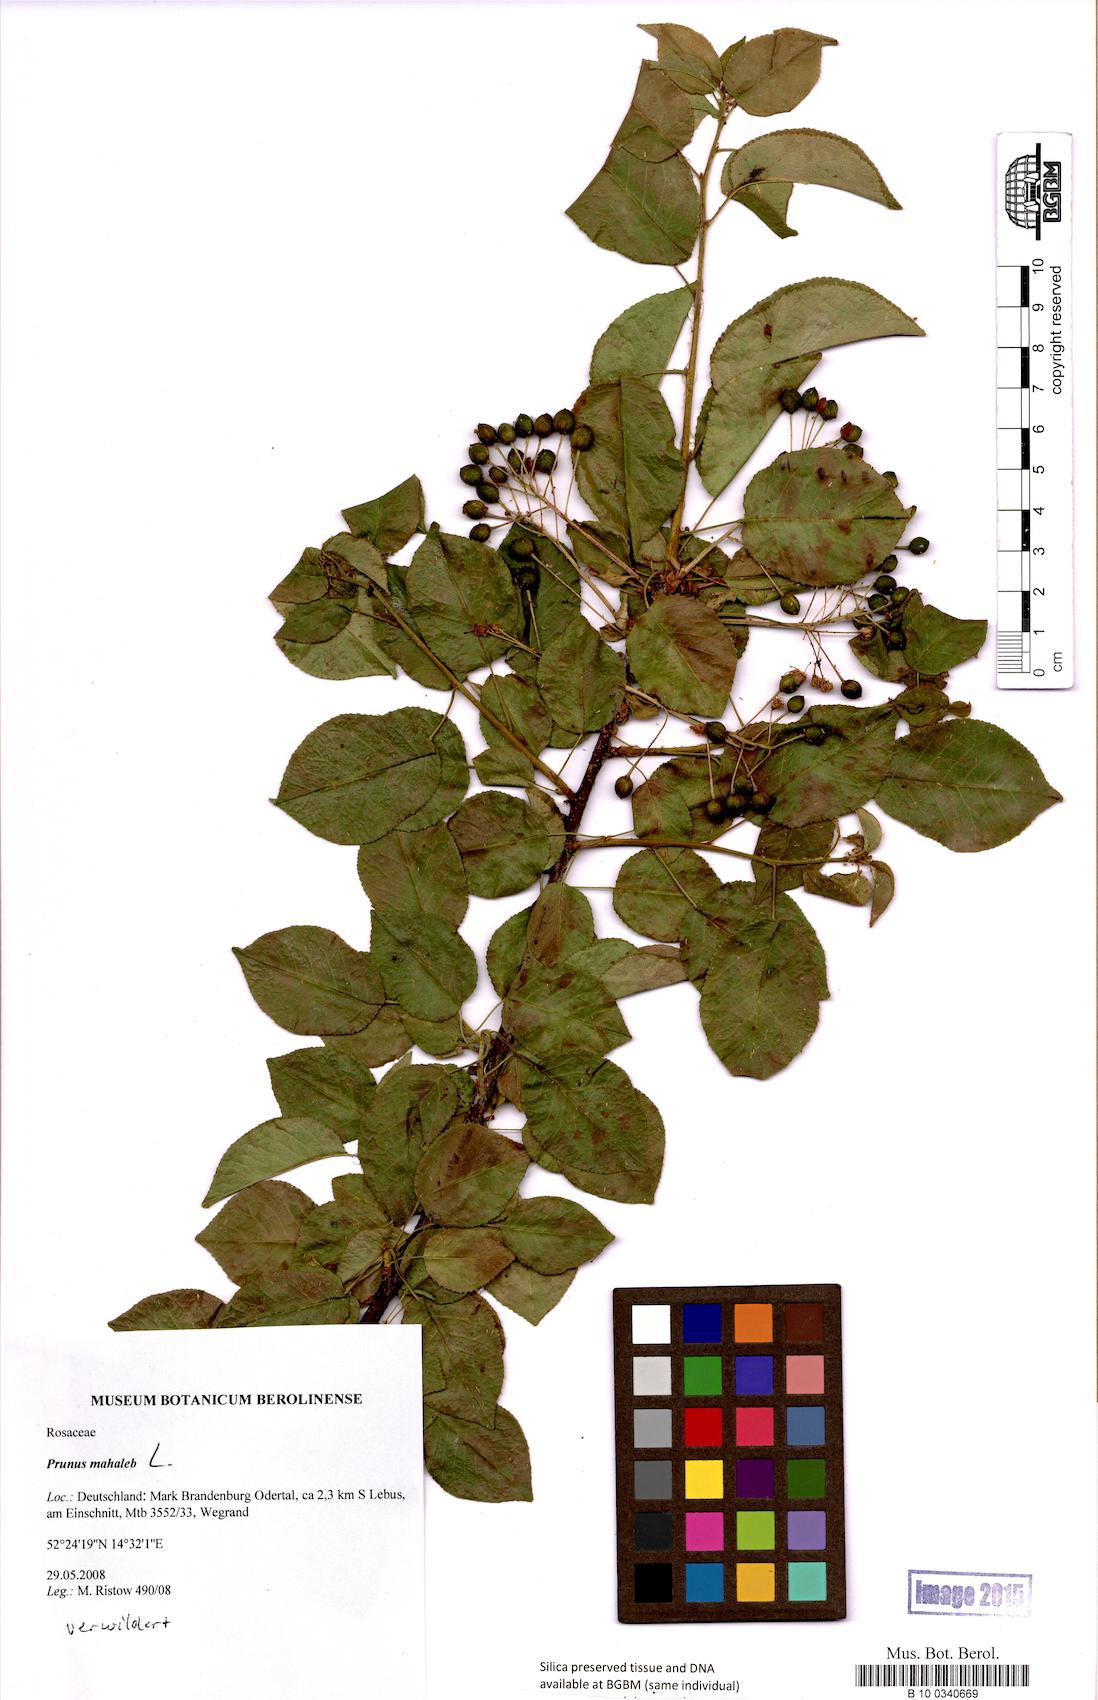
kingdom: Plantae
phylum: Tracheophyta
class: Magnoliopsida
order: Rosales
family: Rosaceae
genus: Prunus
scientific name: Prunus mahaleb
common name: Mahaleb cherry
